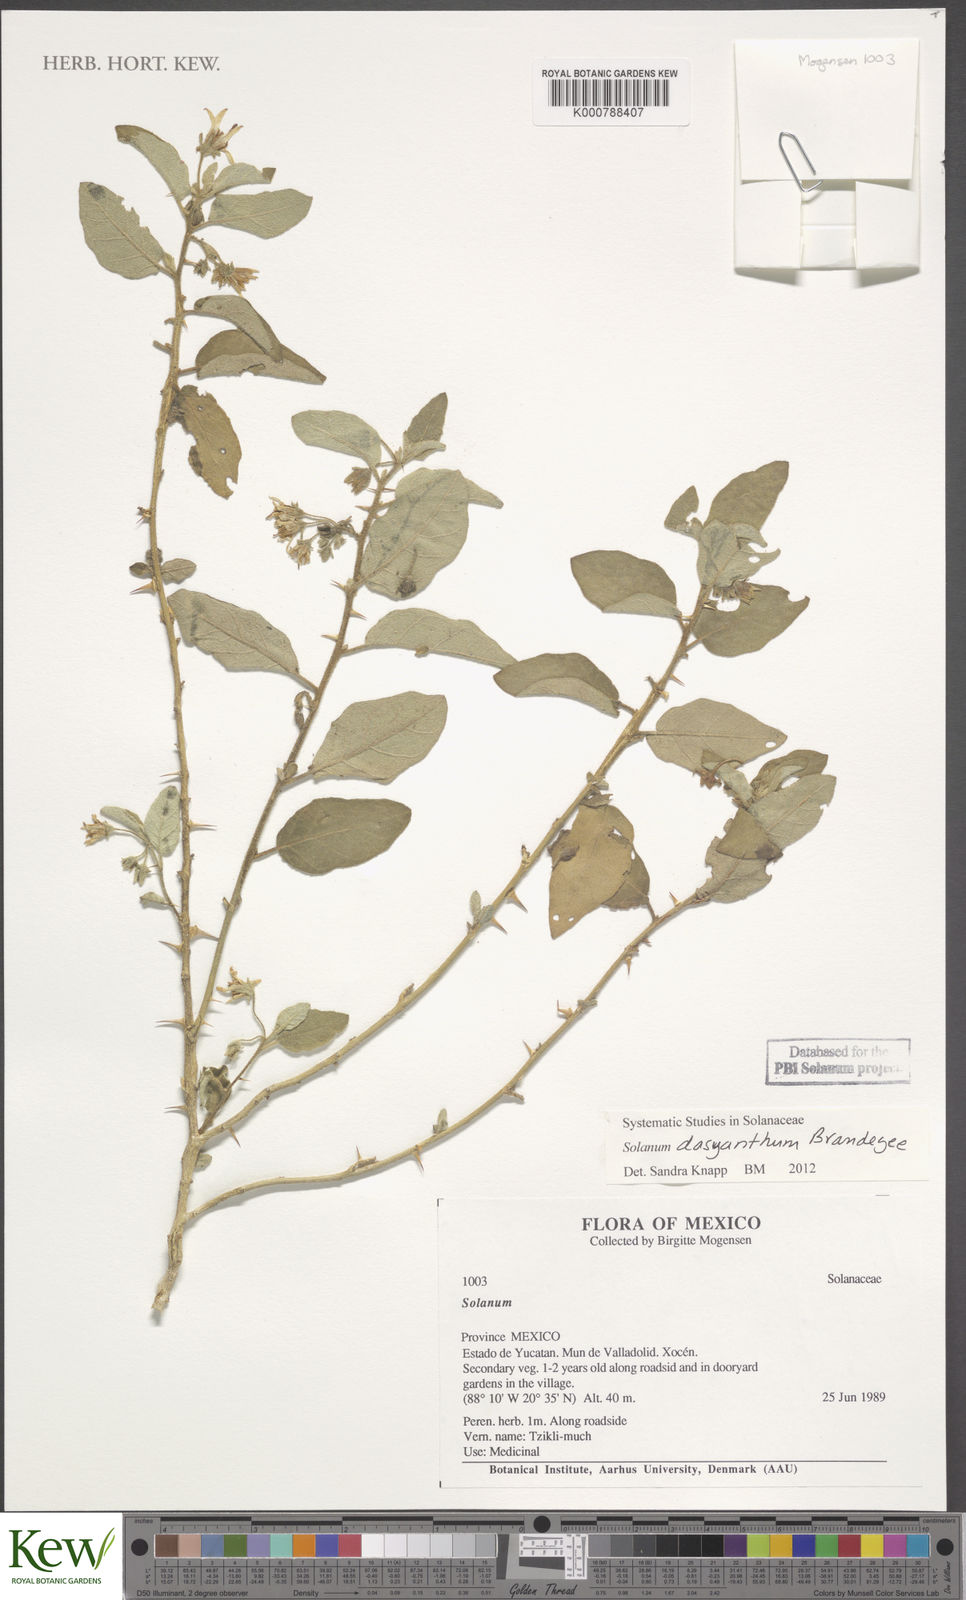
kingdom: Plantae
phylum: Tracheophyta
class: Magnoliopsida
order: Solanales
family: Solanaceae
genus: Solanum
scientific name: Solanum tricuspidatum
